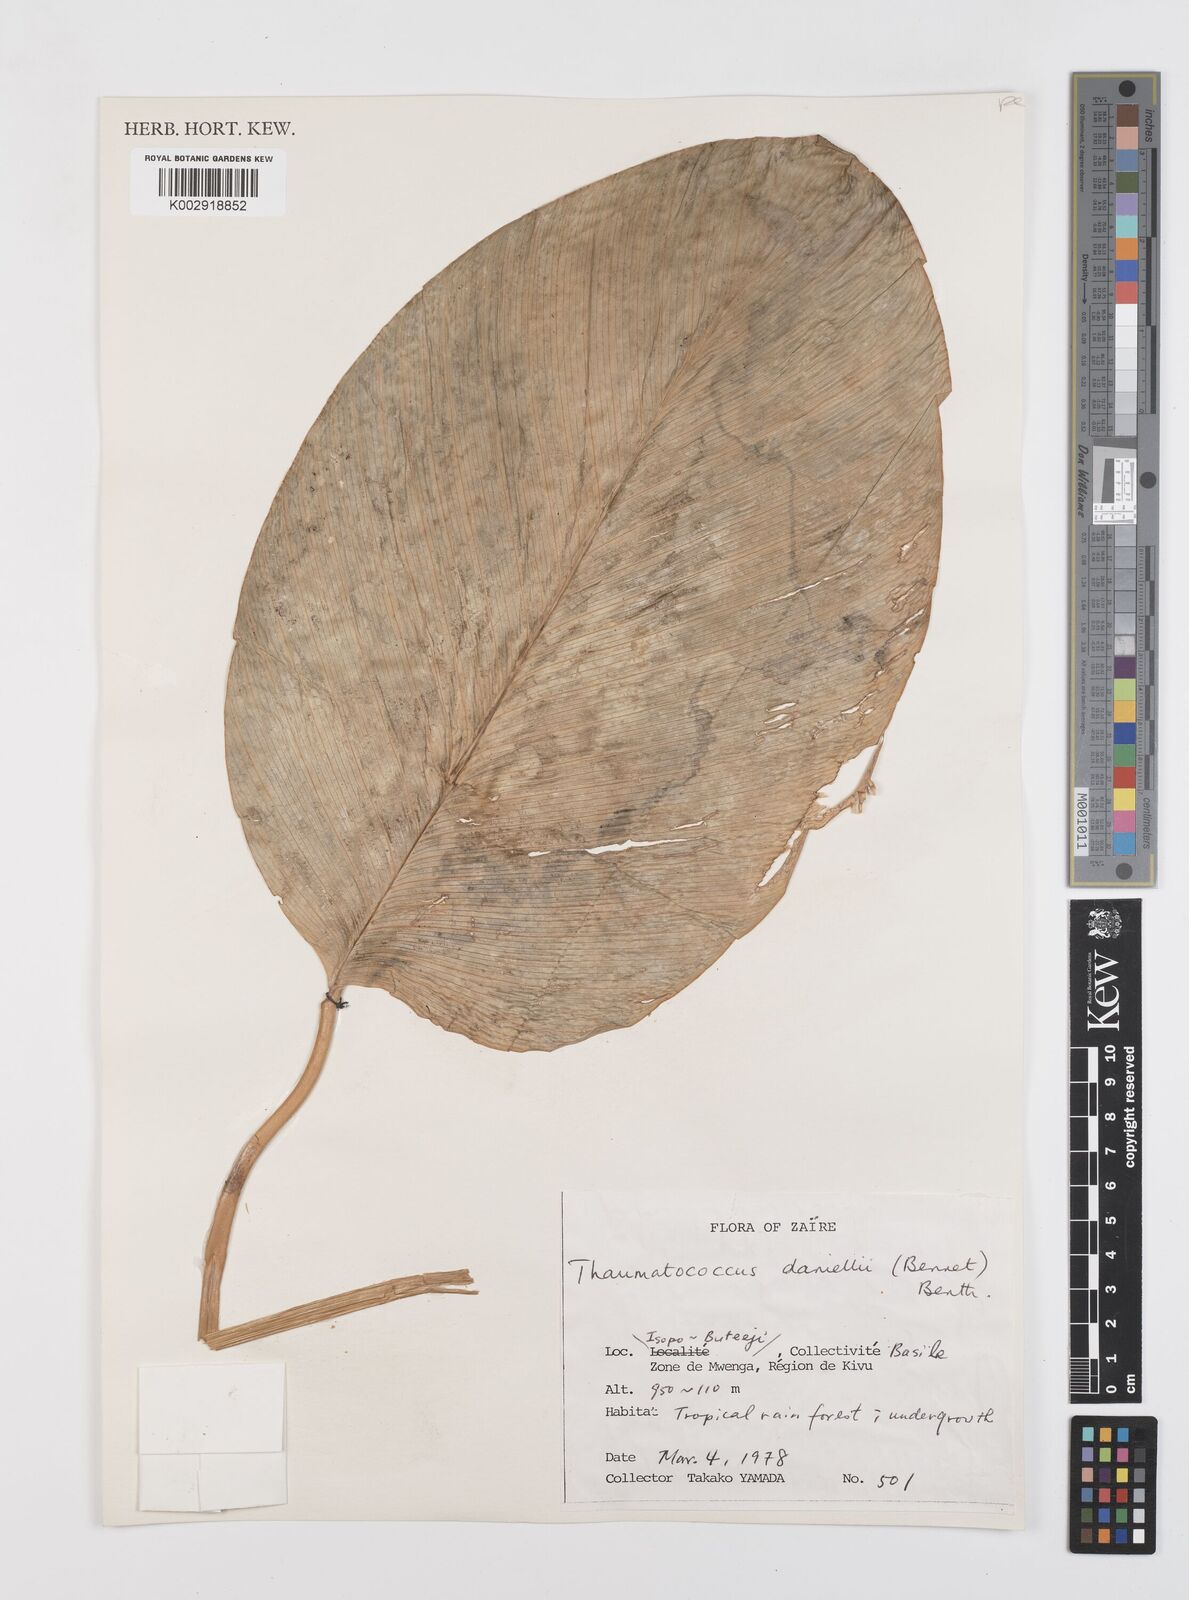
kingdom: Plantae
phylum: Tracheophyta
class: Liliopsida
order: Zingiberales
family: Marantaceae
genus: Thaumatococcus
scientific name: Thaumatococcus daniellii
